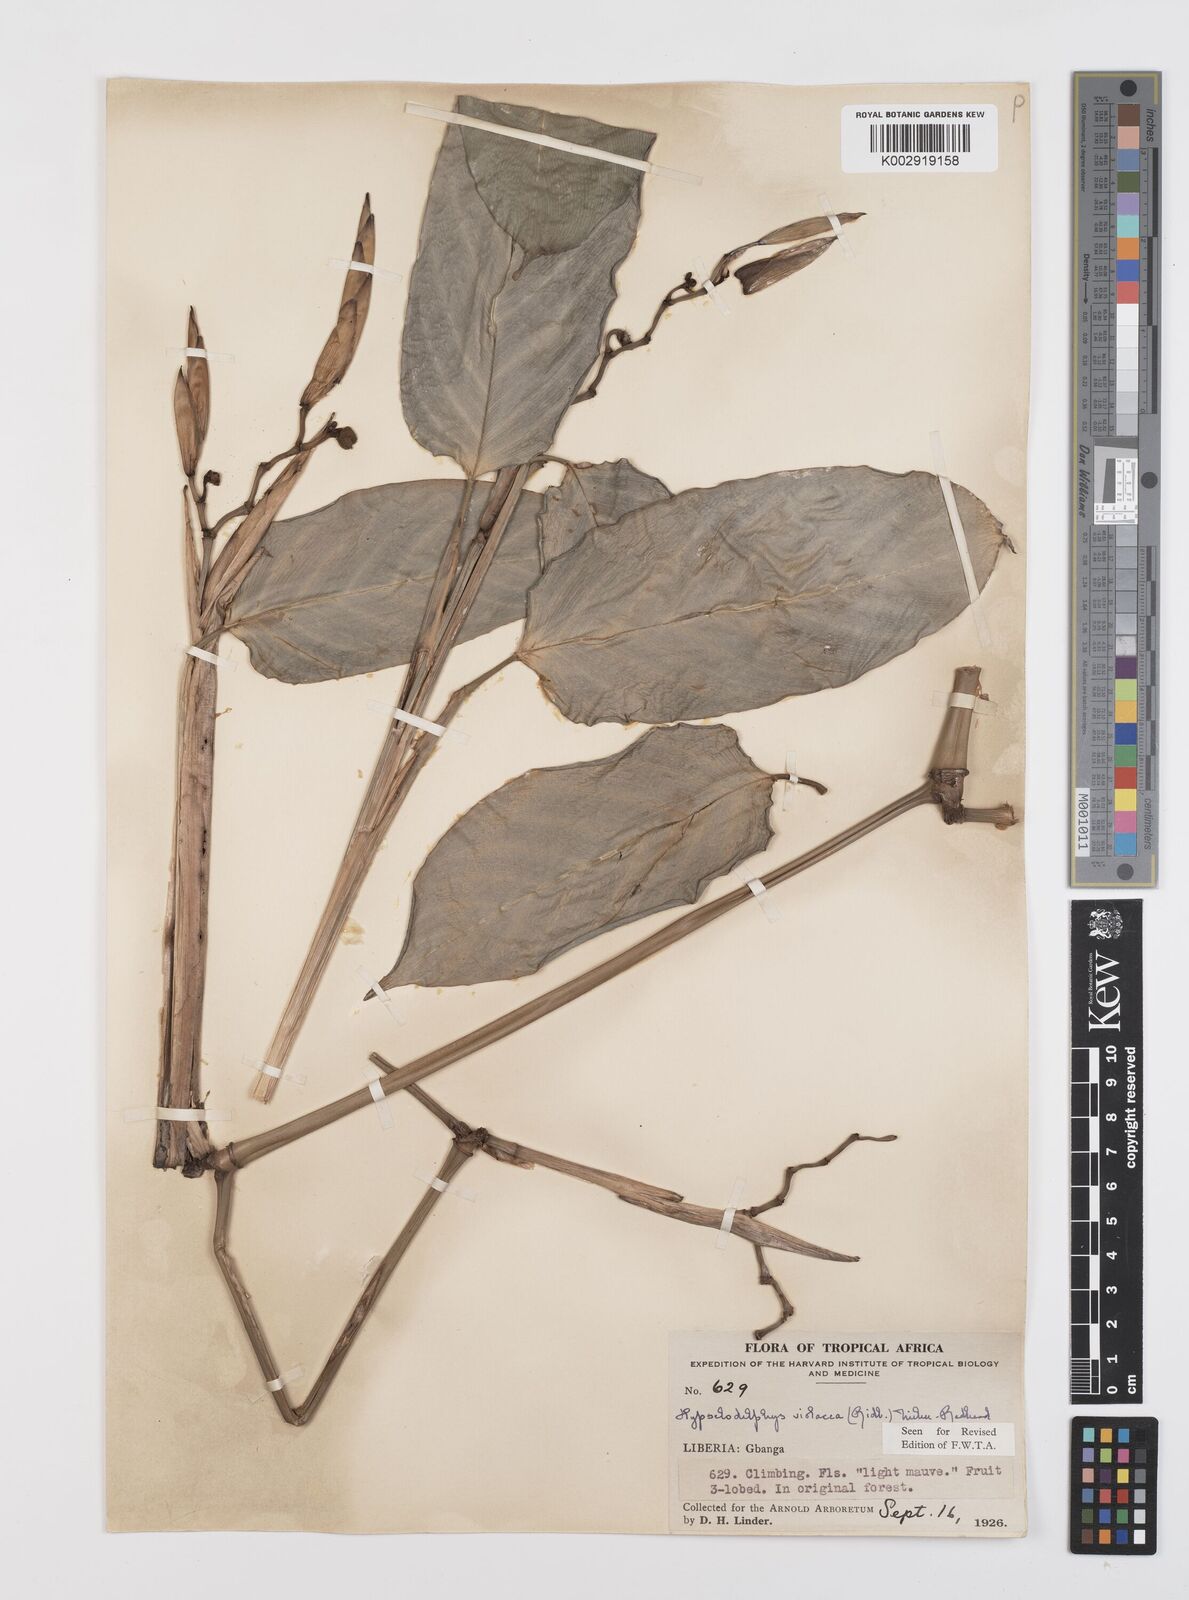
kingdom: Plantae
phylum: Tracheophyta
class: Liliopsida
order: Zingiberales
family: Marantaceae
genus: Hypselodelphys
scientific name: Hypselodelphys violacea
